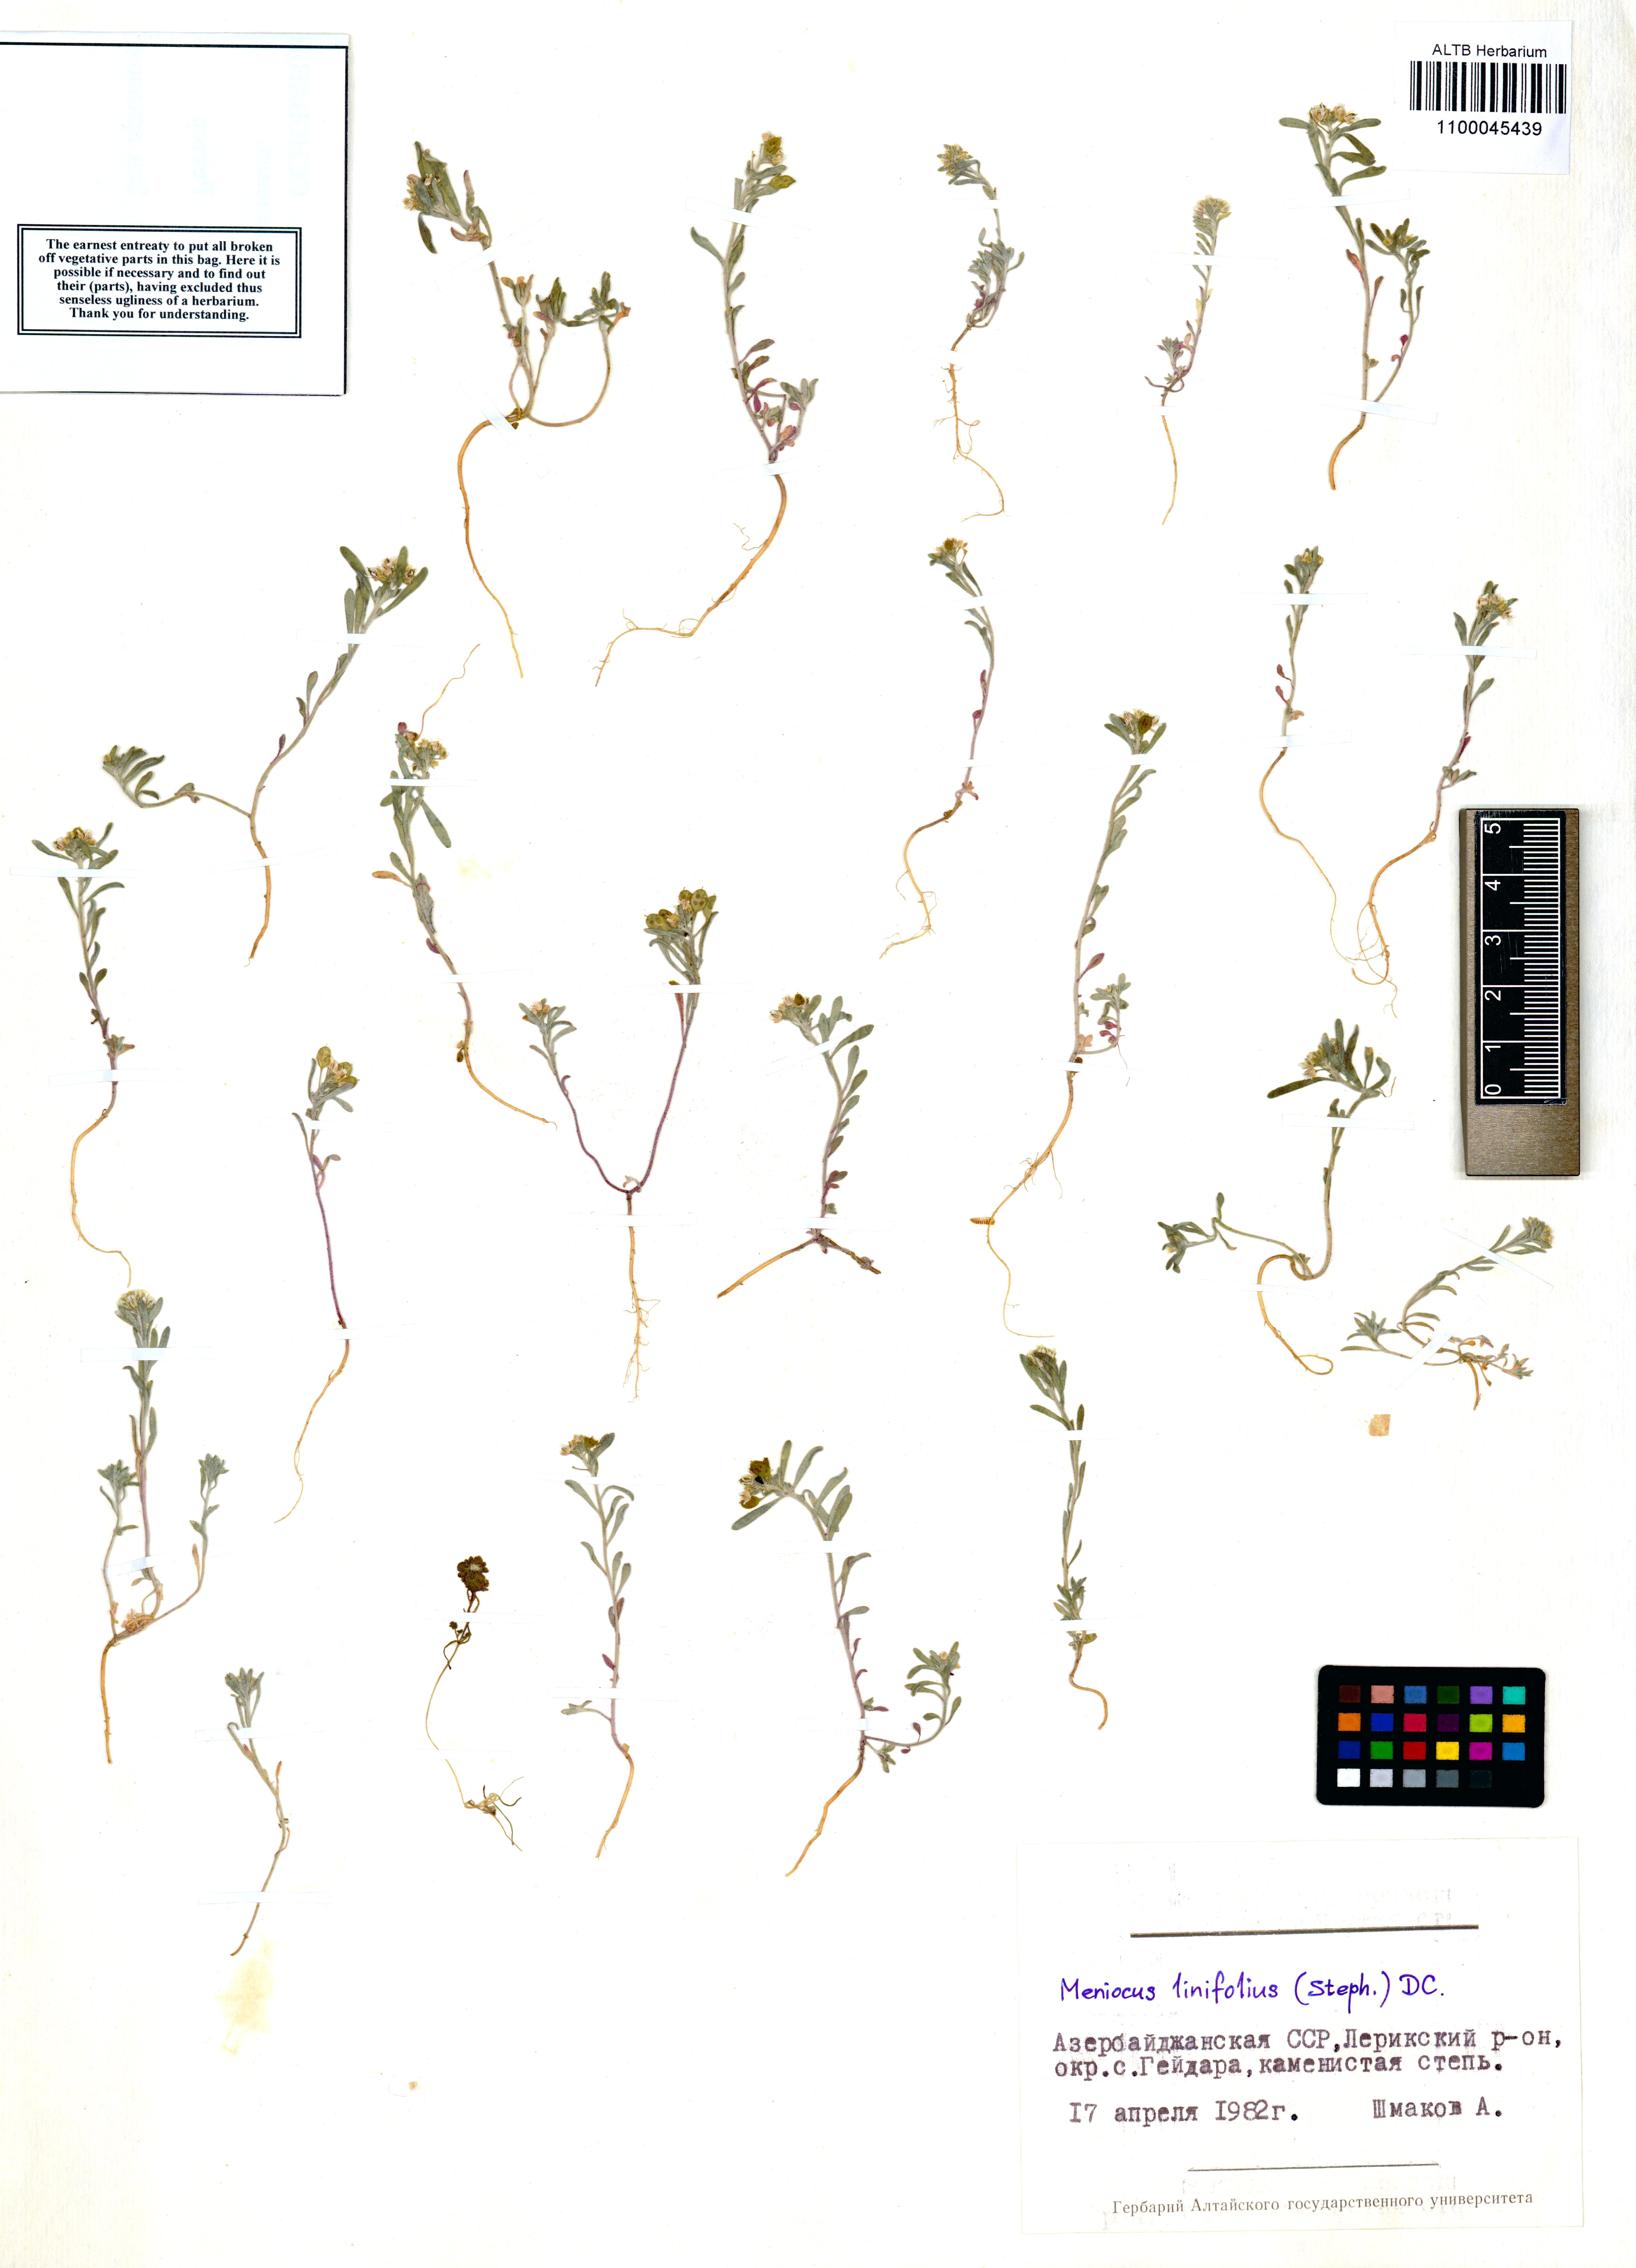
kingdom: Plantae
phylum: Tracheophyta
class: Magnoliopsida
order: Brassicales
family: Brassicaceae
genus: Meniocus
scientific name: Meniocus linifolius
